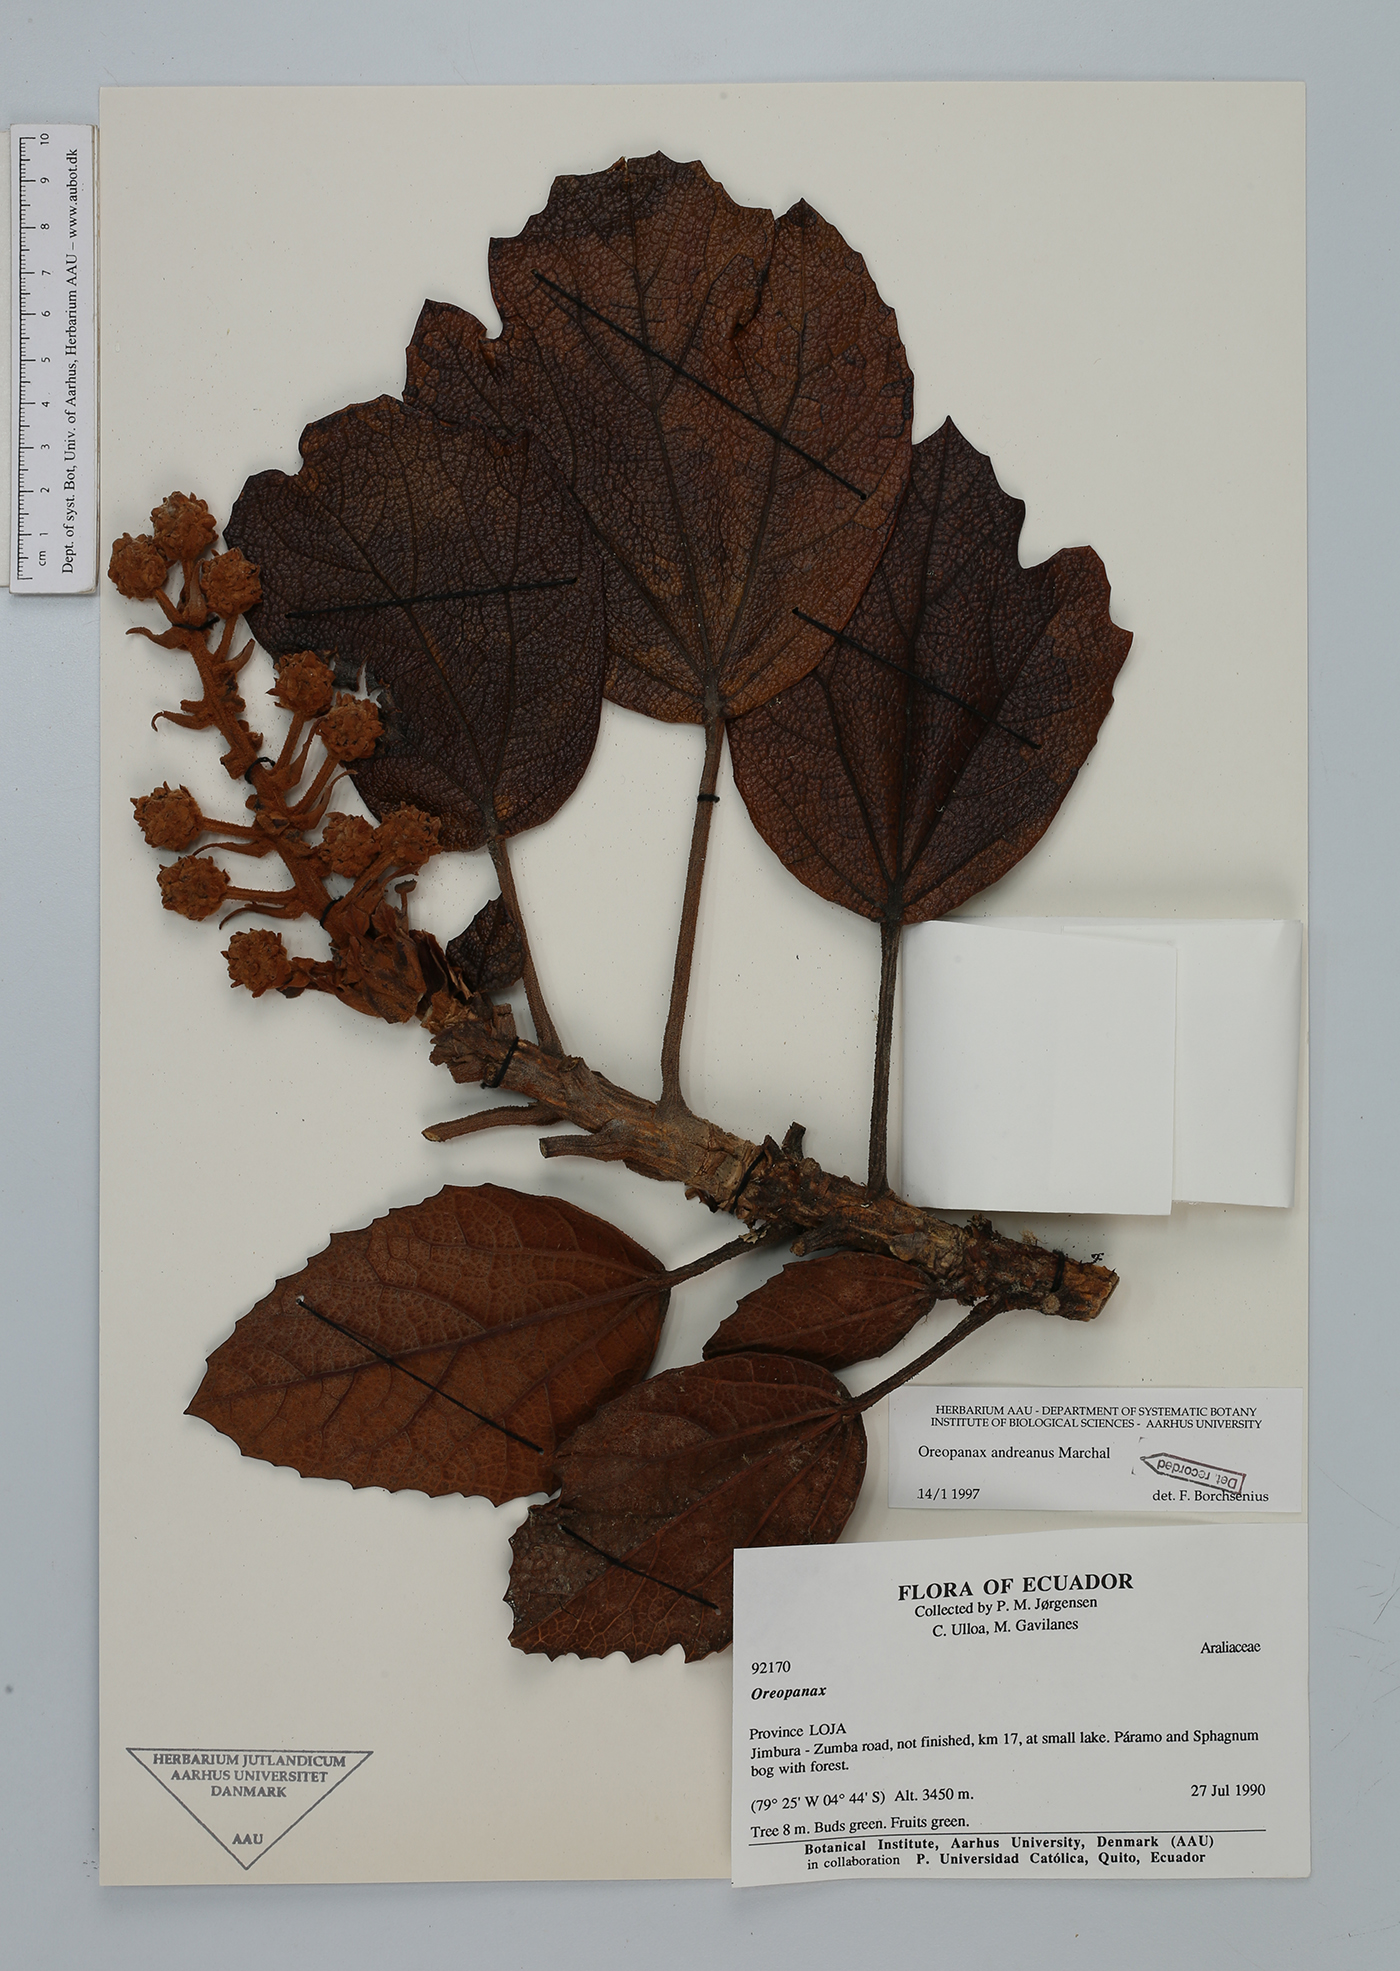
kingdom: Plantae
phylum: Tracheophyta
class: Magnoliopsida
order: Apiales
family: Araliaceae
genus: Oreopanax
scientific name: Oreopanax andreanus
